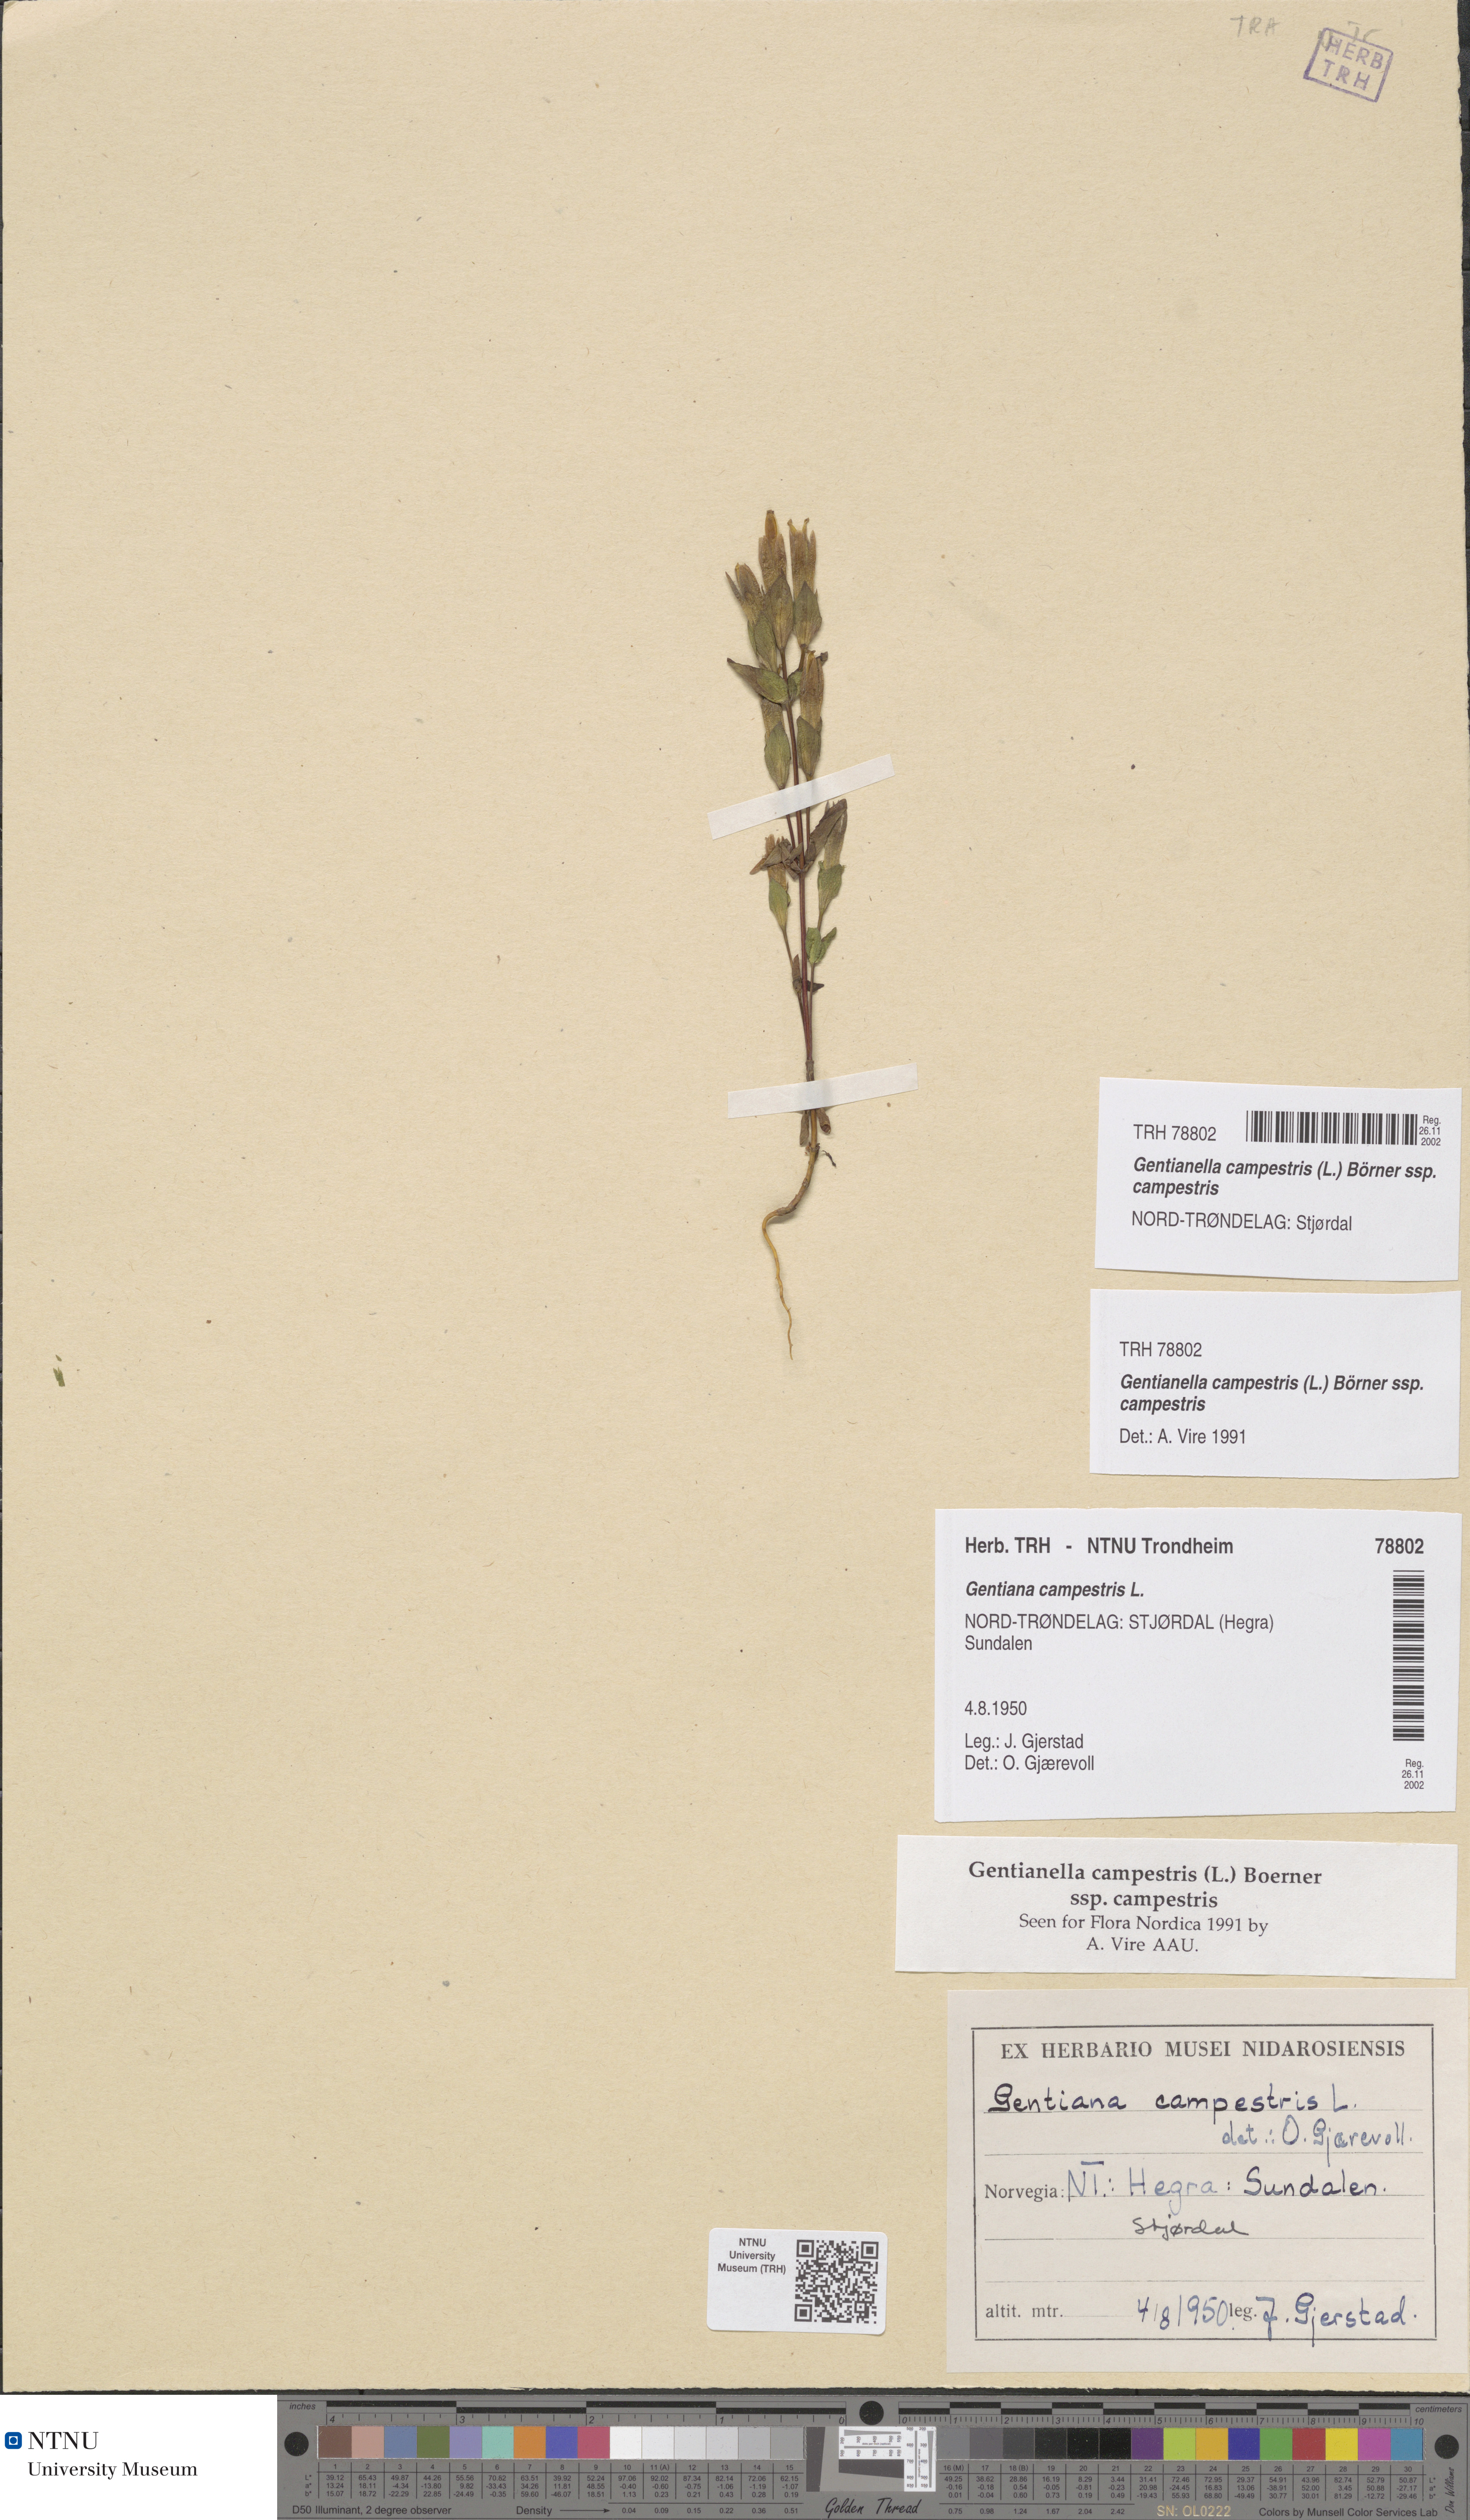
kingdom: Plantae
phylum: Tracheophyta
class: Magnoliopsida
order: Gentianales
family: Gentianaceae
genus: Gentianella
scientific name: Gentianella campestris
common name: Field gentian
